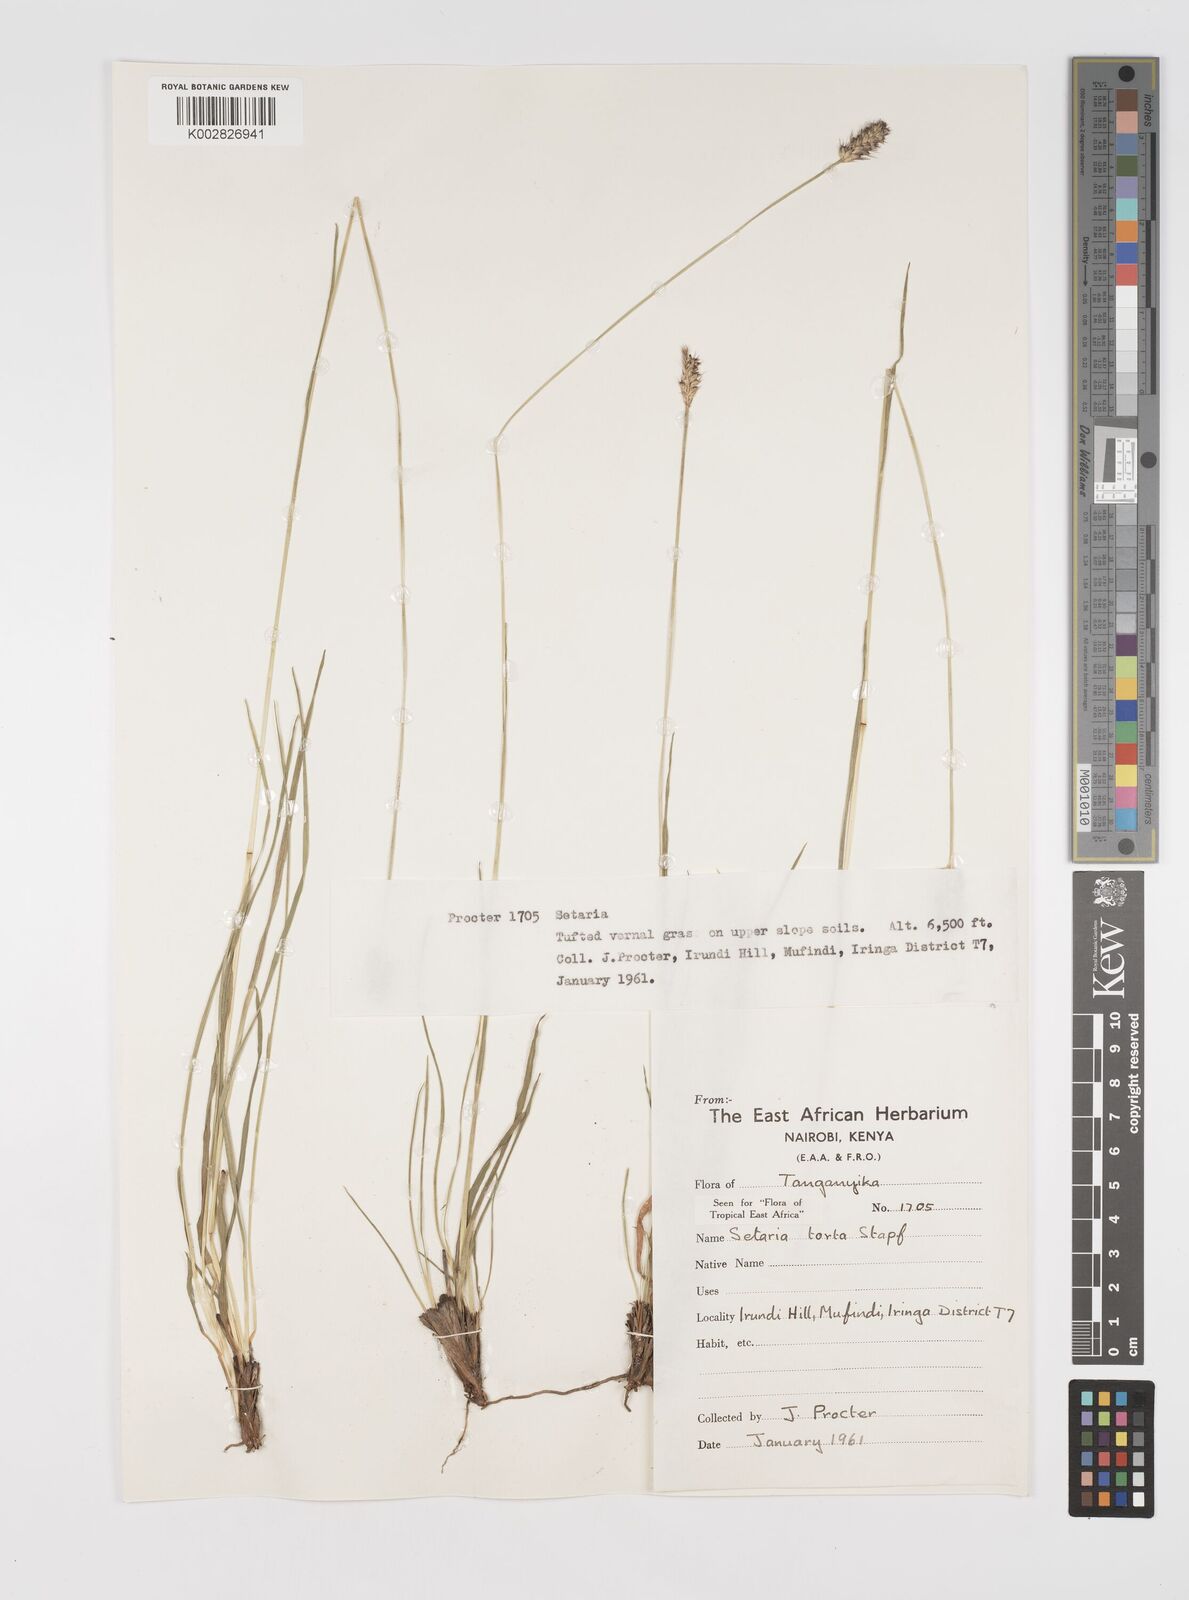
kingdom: Plantae
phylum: Tracheophyta
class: Liliopsida
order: Poales
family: Poaceae
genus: Setaria
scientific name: Setaria sphacelata
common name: African bristlegrass
